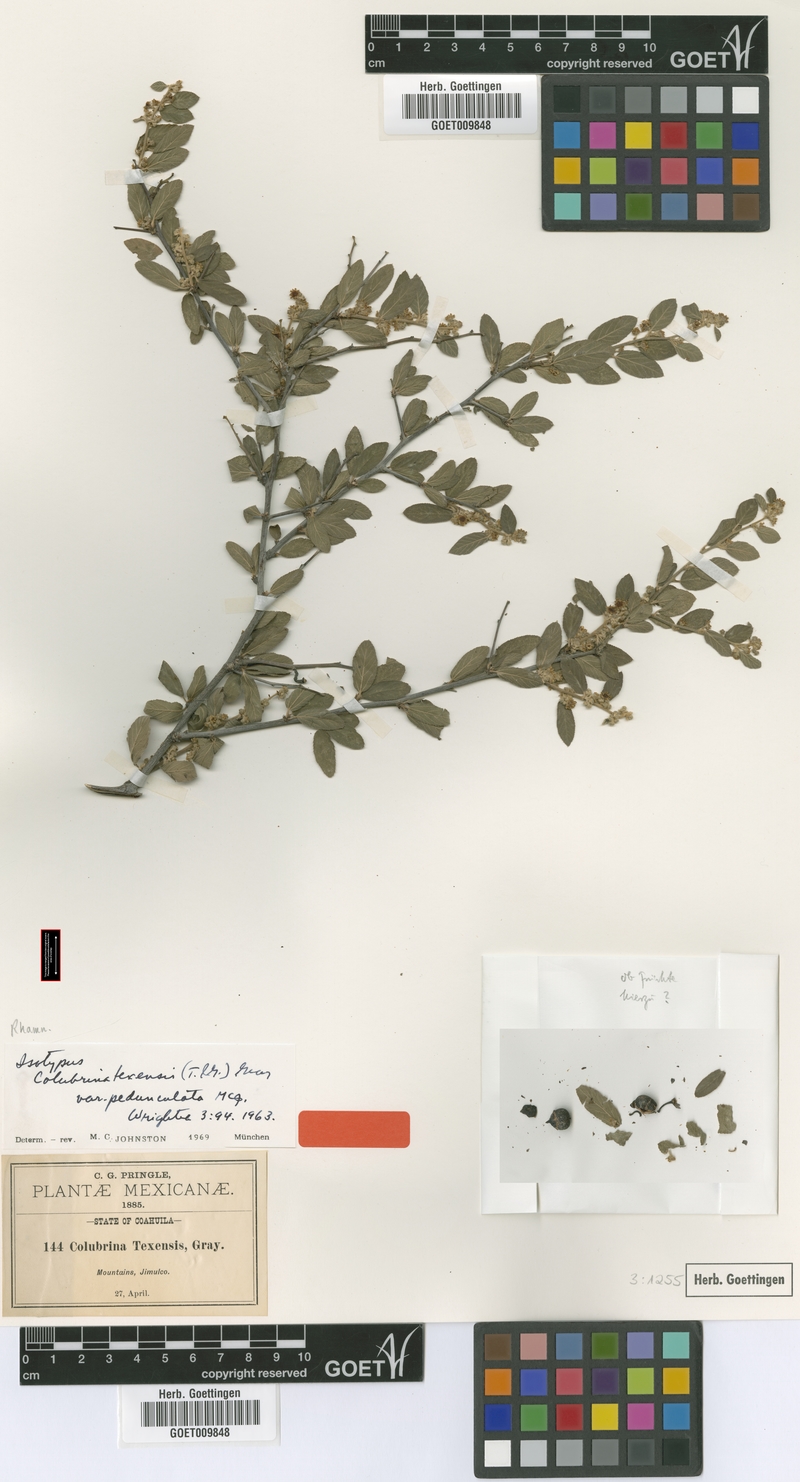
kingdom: Plantae
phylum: Tracheophyta
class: Magnoliopsida
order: Rosales
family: Rhamnaceae
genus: Colubrina
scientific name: Colubrina texensis
